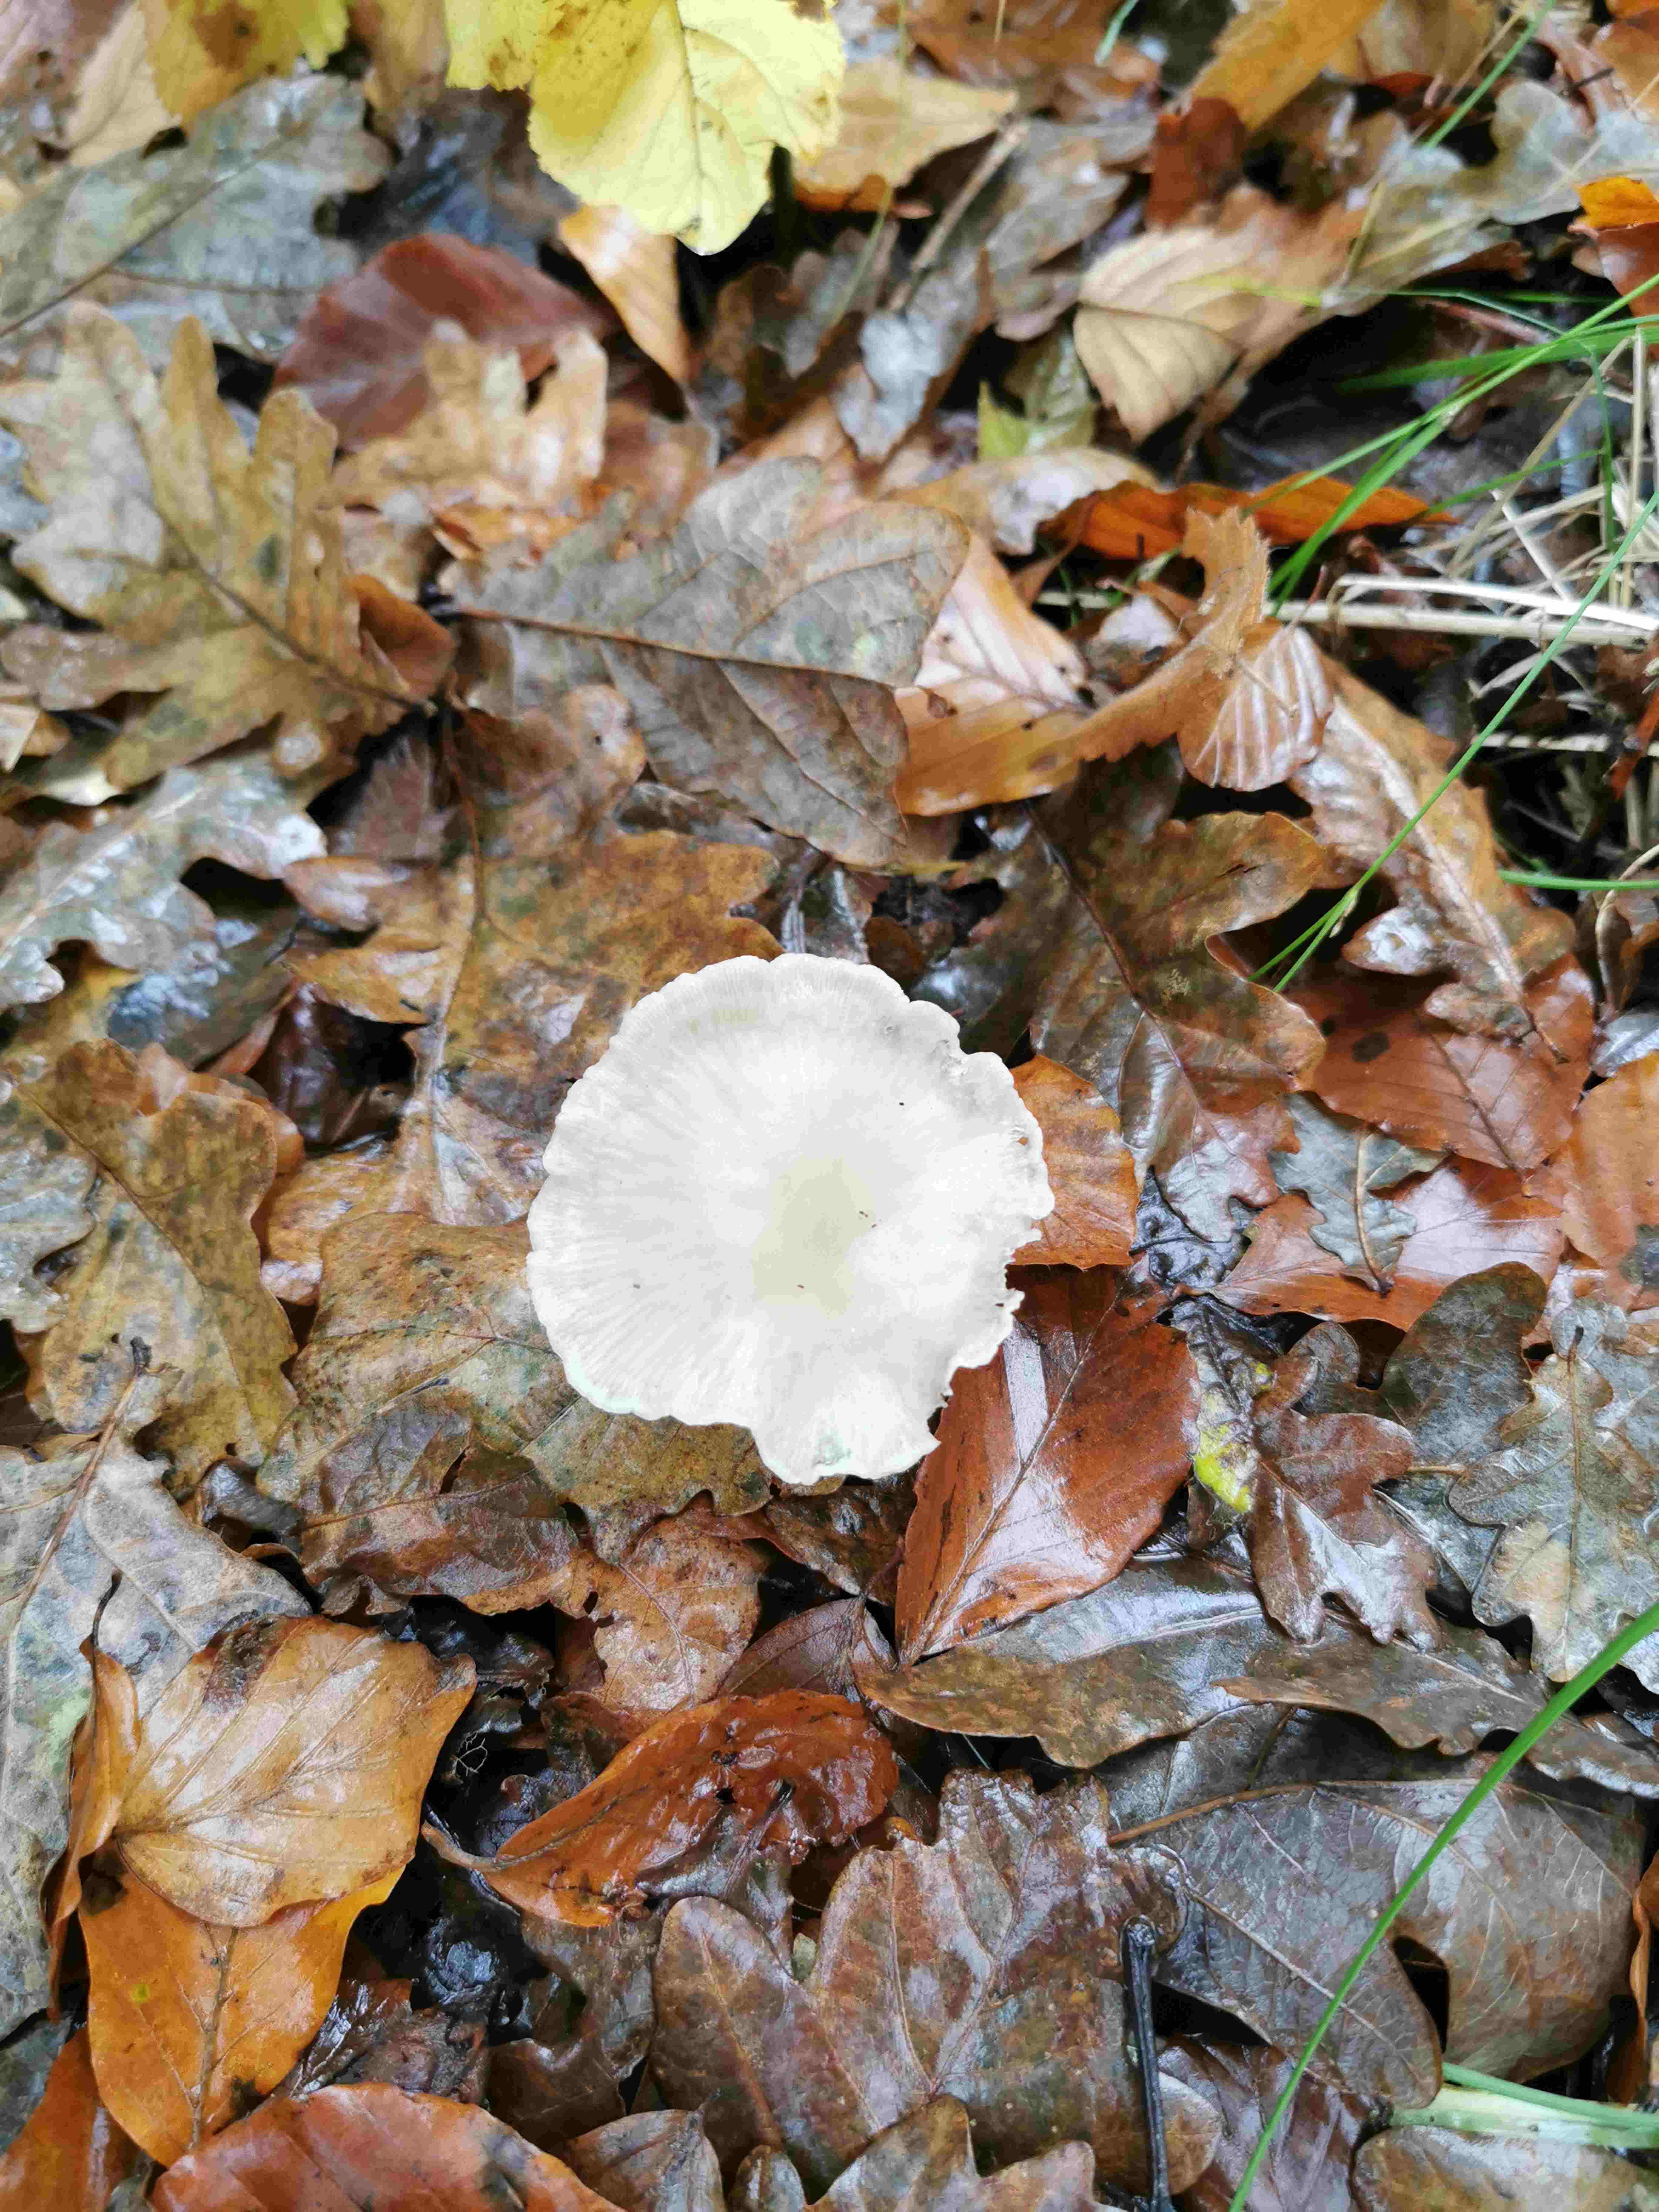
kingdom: Fungi
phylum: Basidiomycota
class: Agaricomycetes
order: Russulales
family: Russulaceae
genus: Russula
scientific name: Russula
